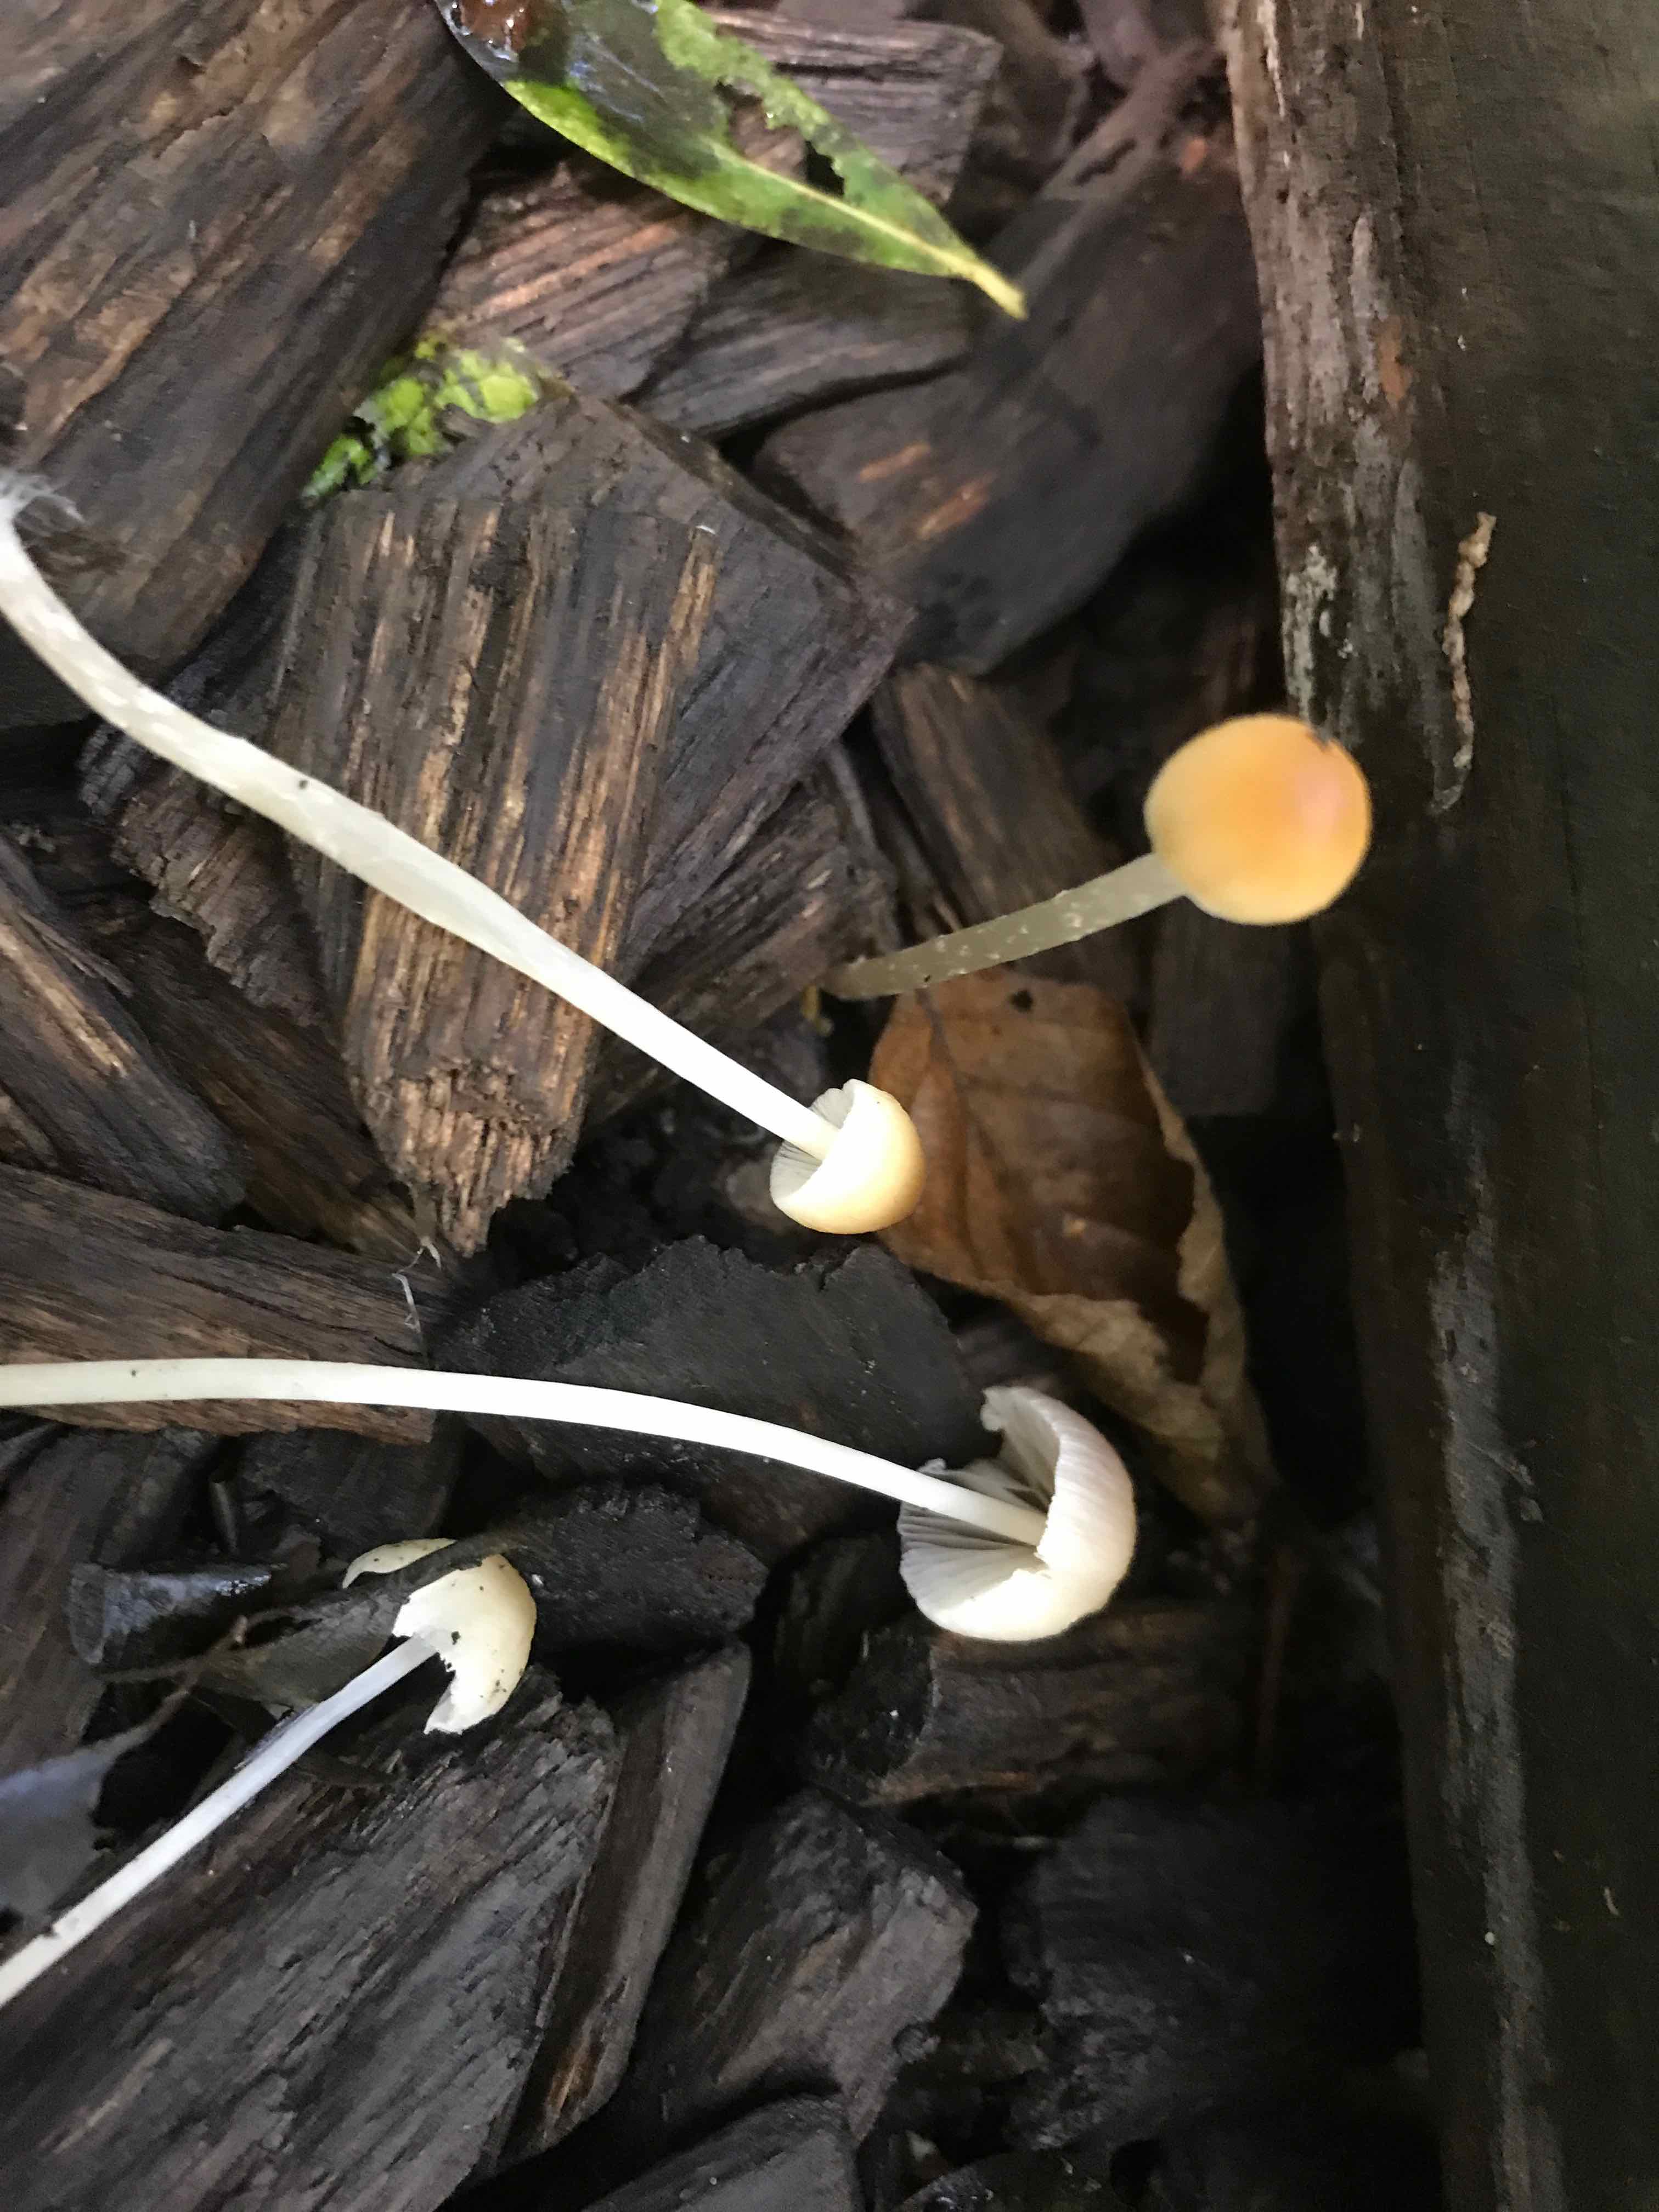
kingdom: Fungi
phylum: Basidiomycota
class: Agaricomycetes
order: Agaricales
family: Psathyrellaceae
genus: Psathyrella
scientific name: Psathyrella
